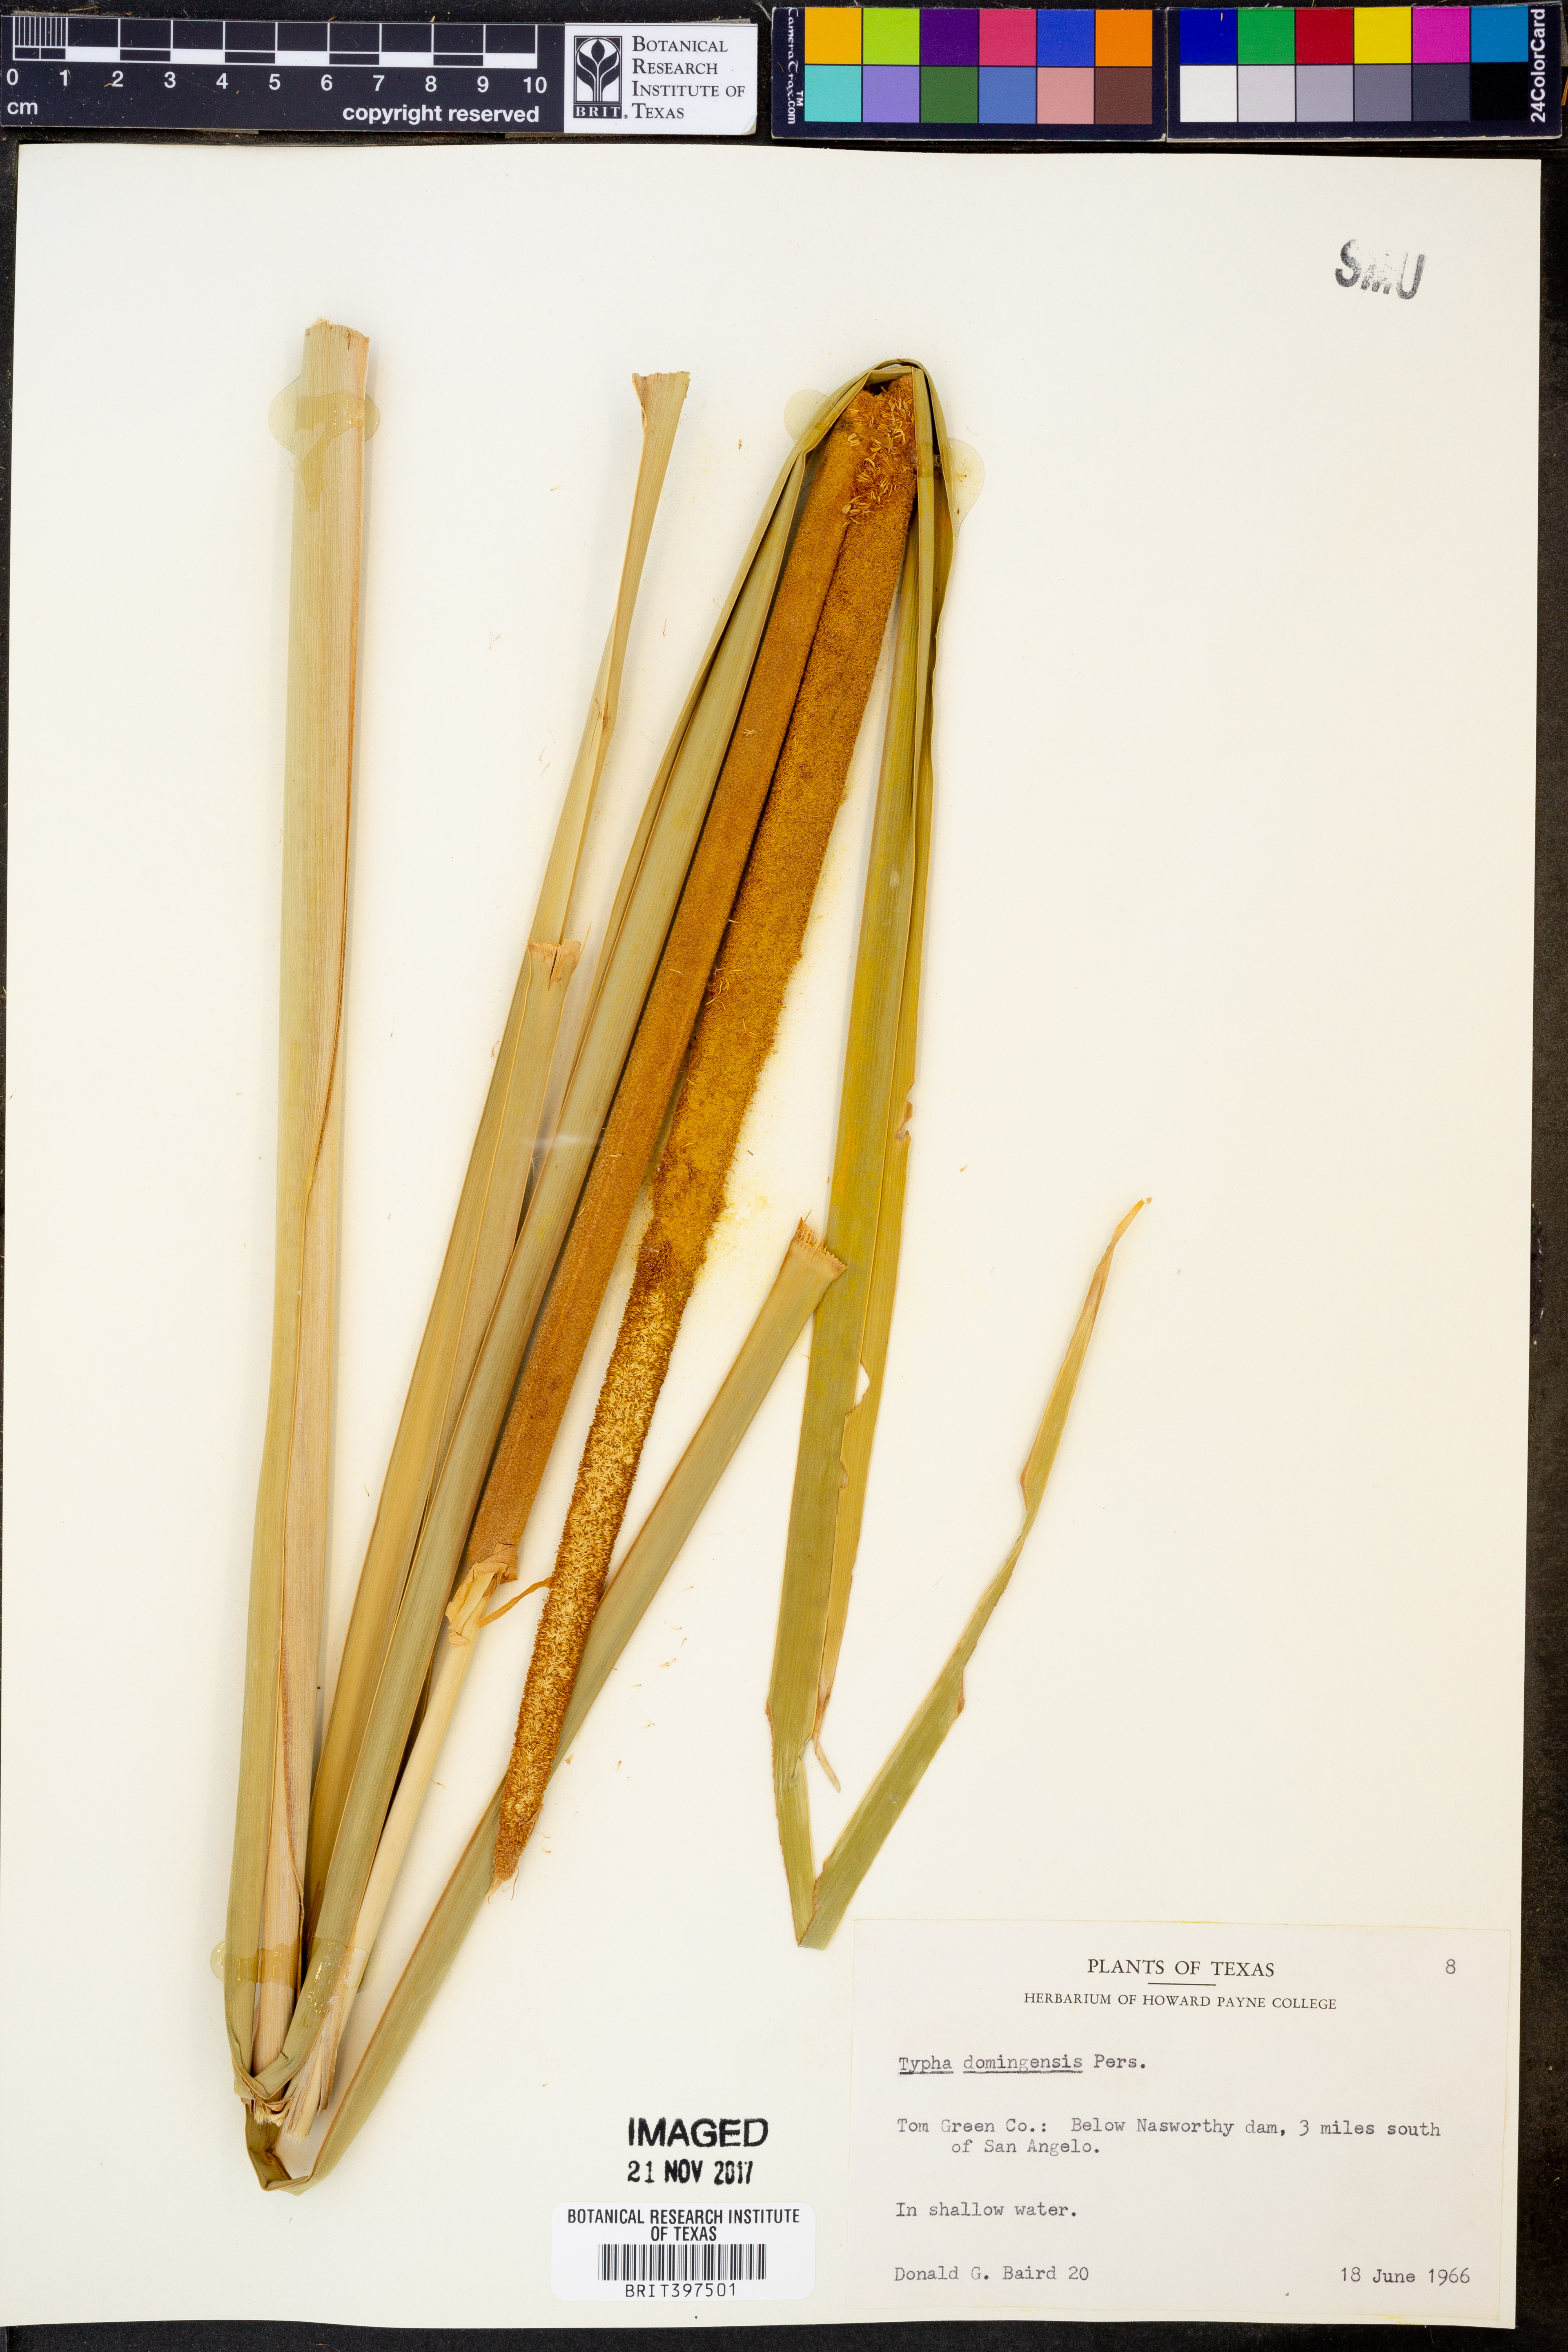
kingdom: Plantae
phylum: Tracheophyta
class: Liliopsida
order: Poales
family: Typhaceae
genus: Typha
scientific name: Typha domingensis
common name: Southern cattail
